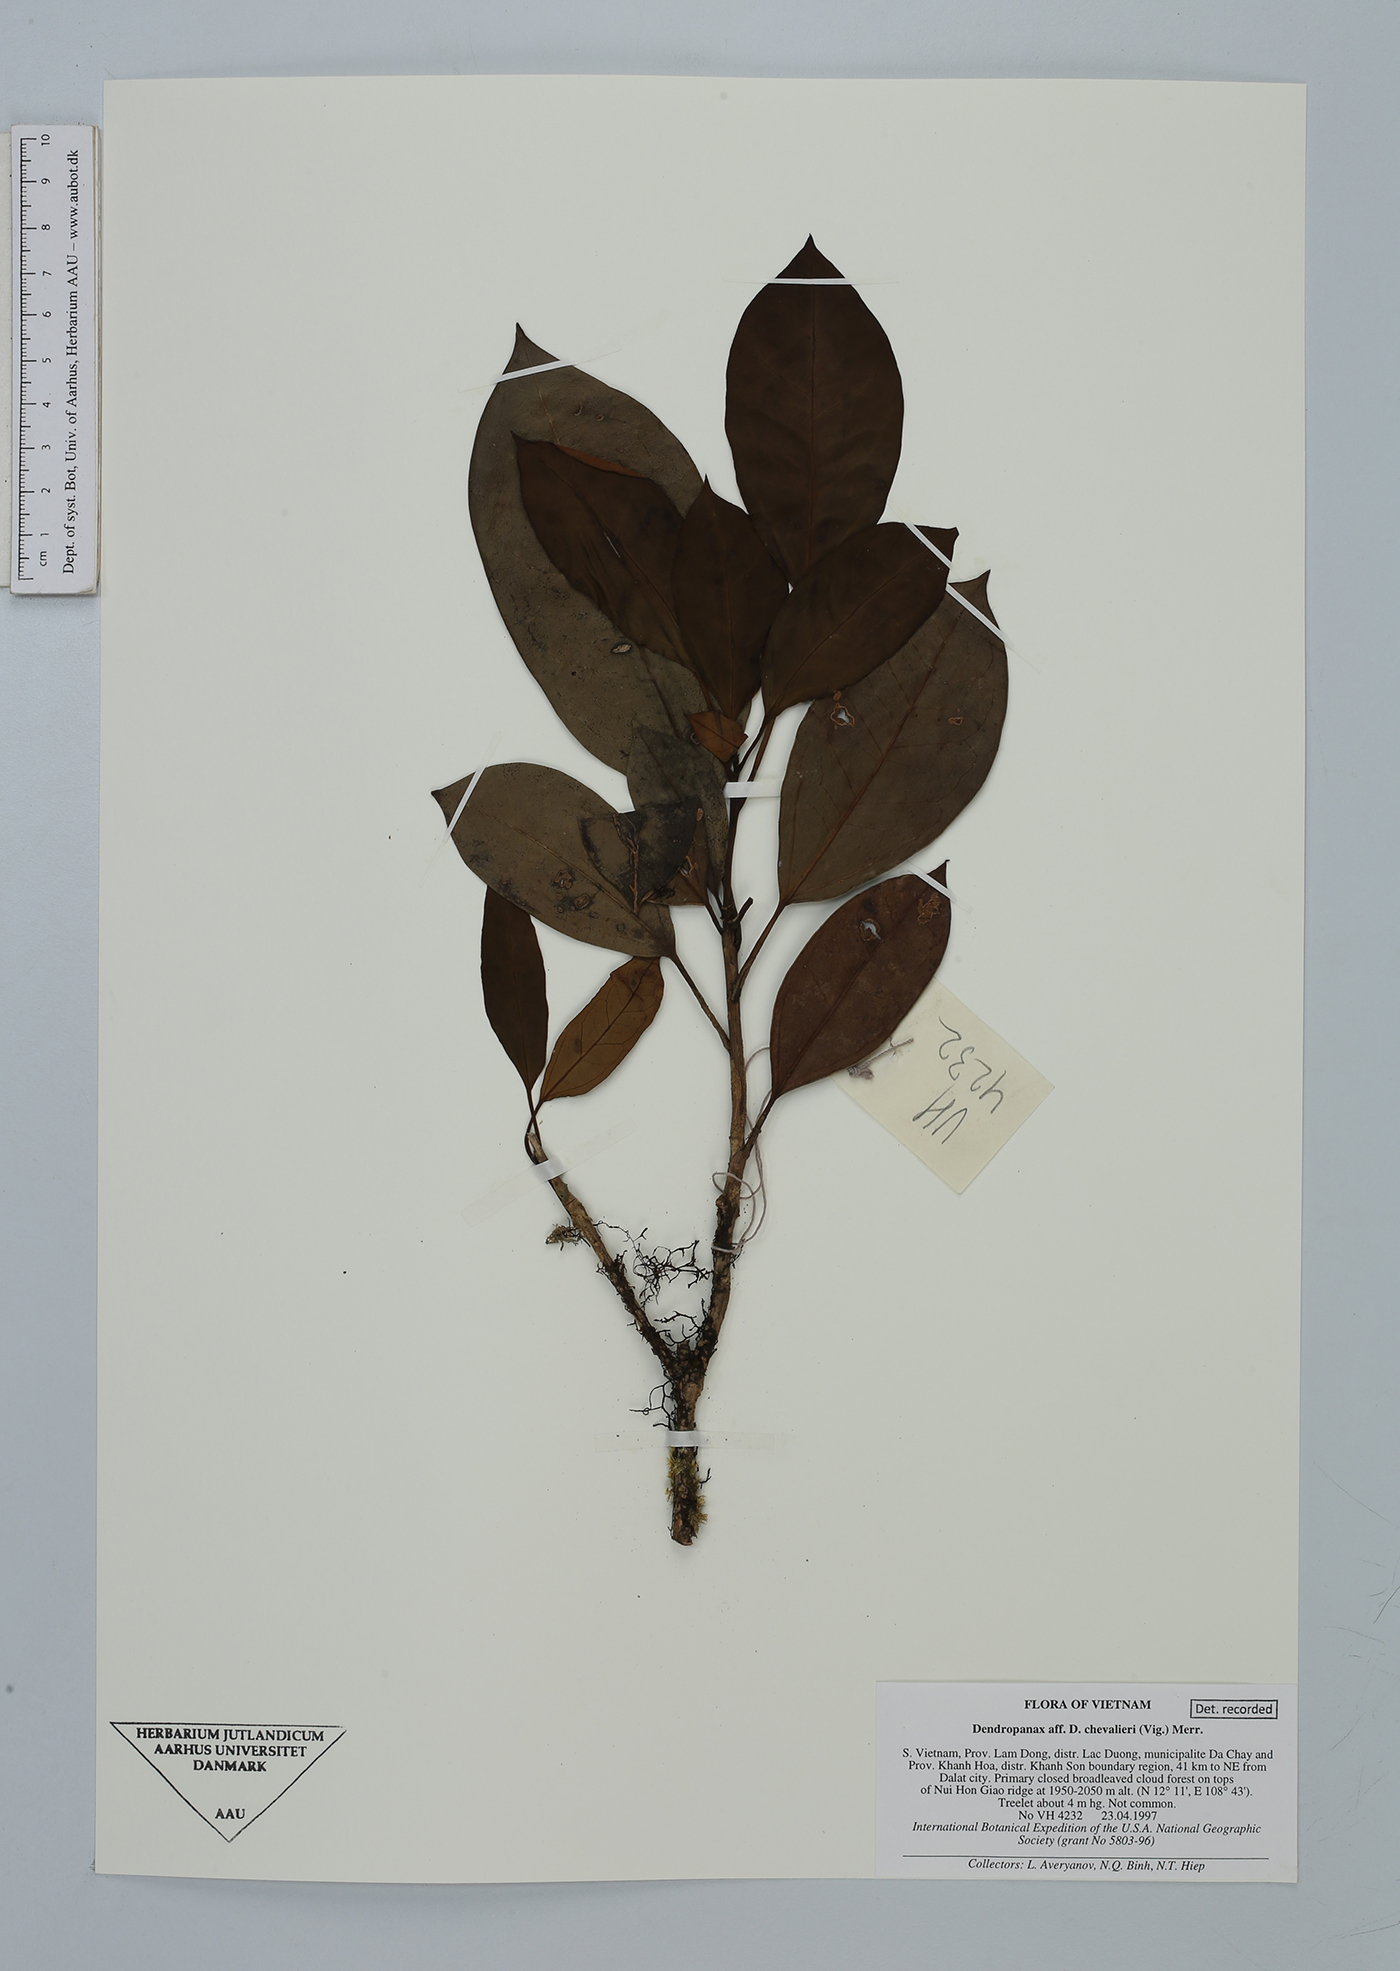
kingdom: Plantae
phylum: Tracheophyta
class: Magnoliopsida
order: Apiales
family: Araliaceae
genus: Dendropanax
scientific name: Dendropanax chevalieri
